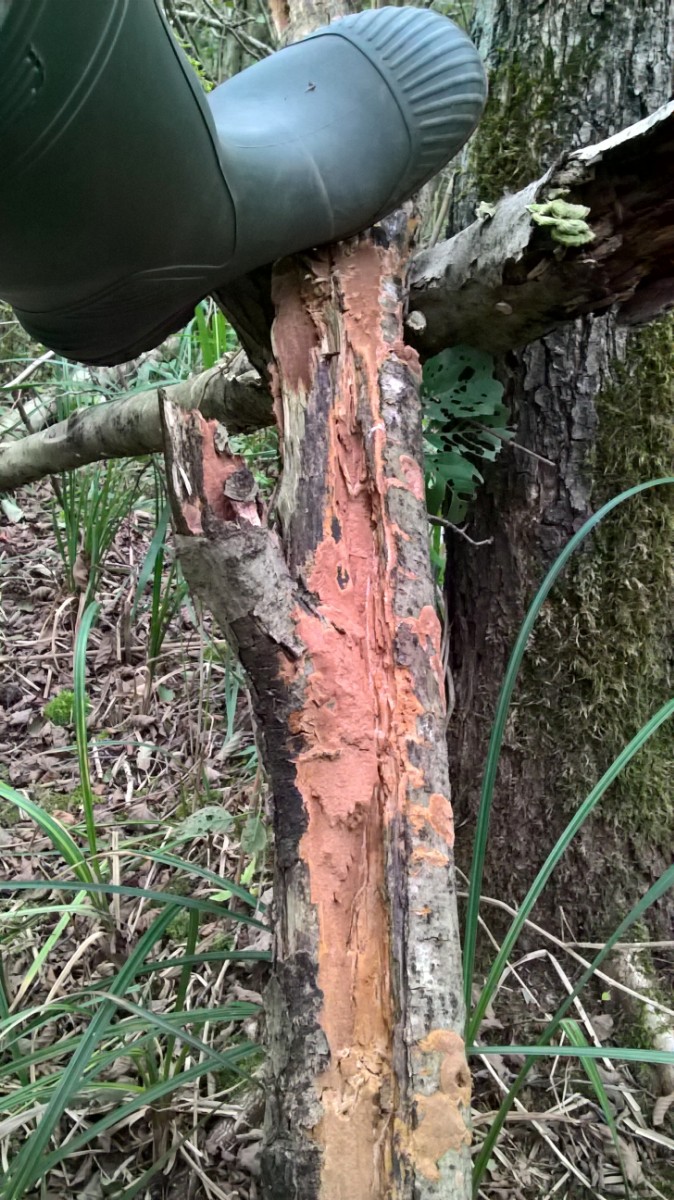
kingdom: Fungi
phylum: Basidiomycota
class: Agaricomycetes
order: Hymenochaetales
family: Hymenochaetaceae
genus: Xanthoporia
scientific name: Xanthoporia radiata
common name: elle-spejlporesvamp
